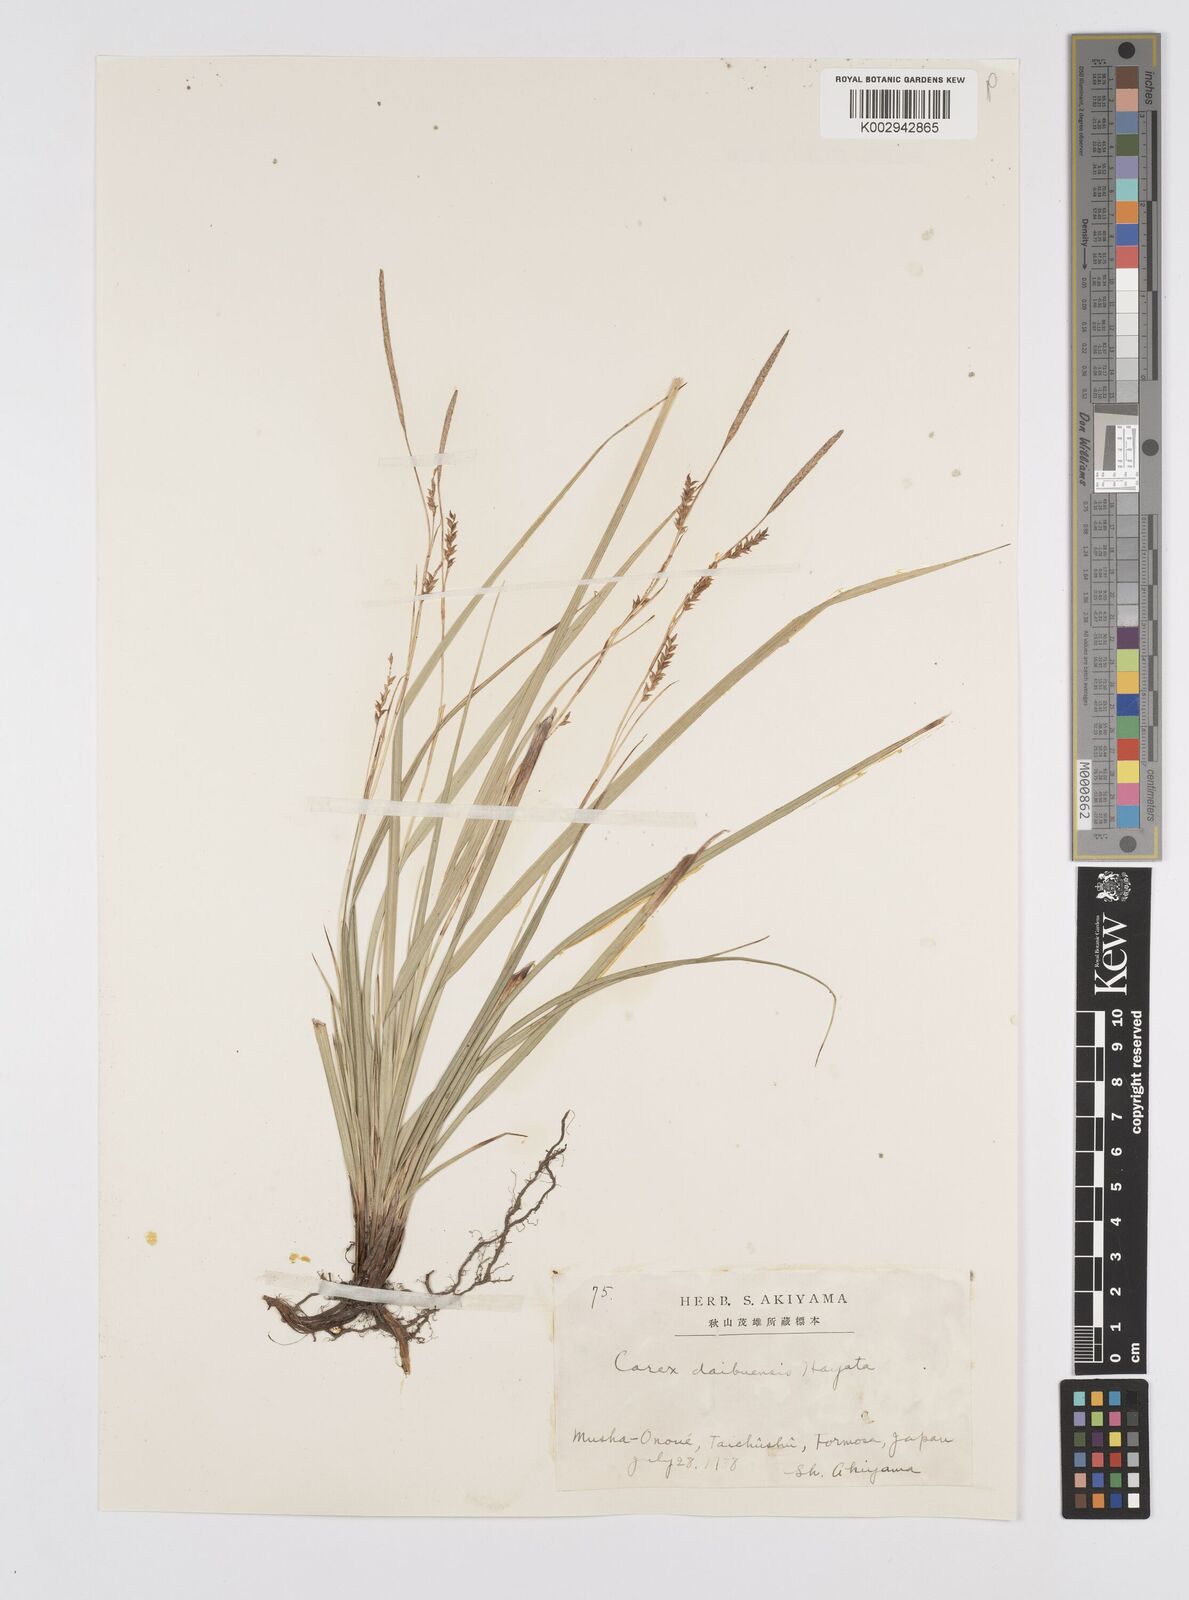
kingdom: Plantae
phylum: Tracheophyta
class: Liliopsida
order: Poales
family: Cyperaceae
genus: Carex
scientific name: Carex vacillans
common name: Sedge
